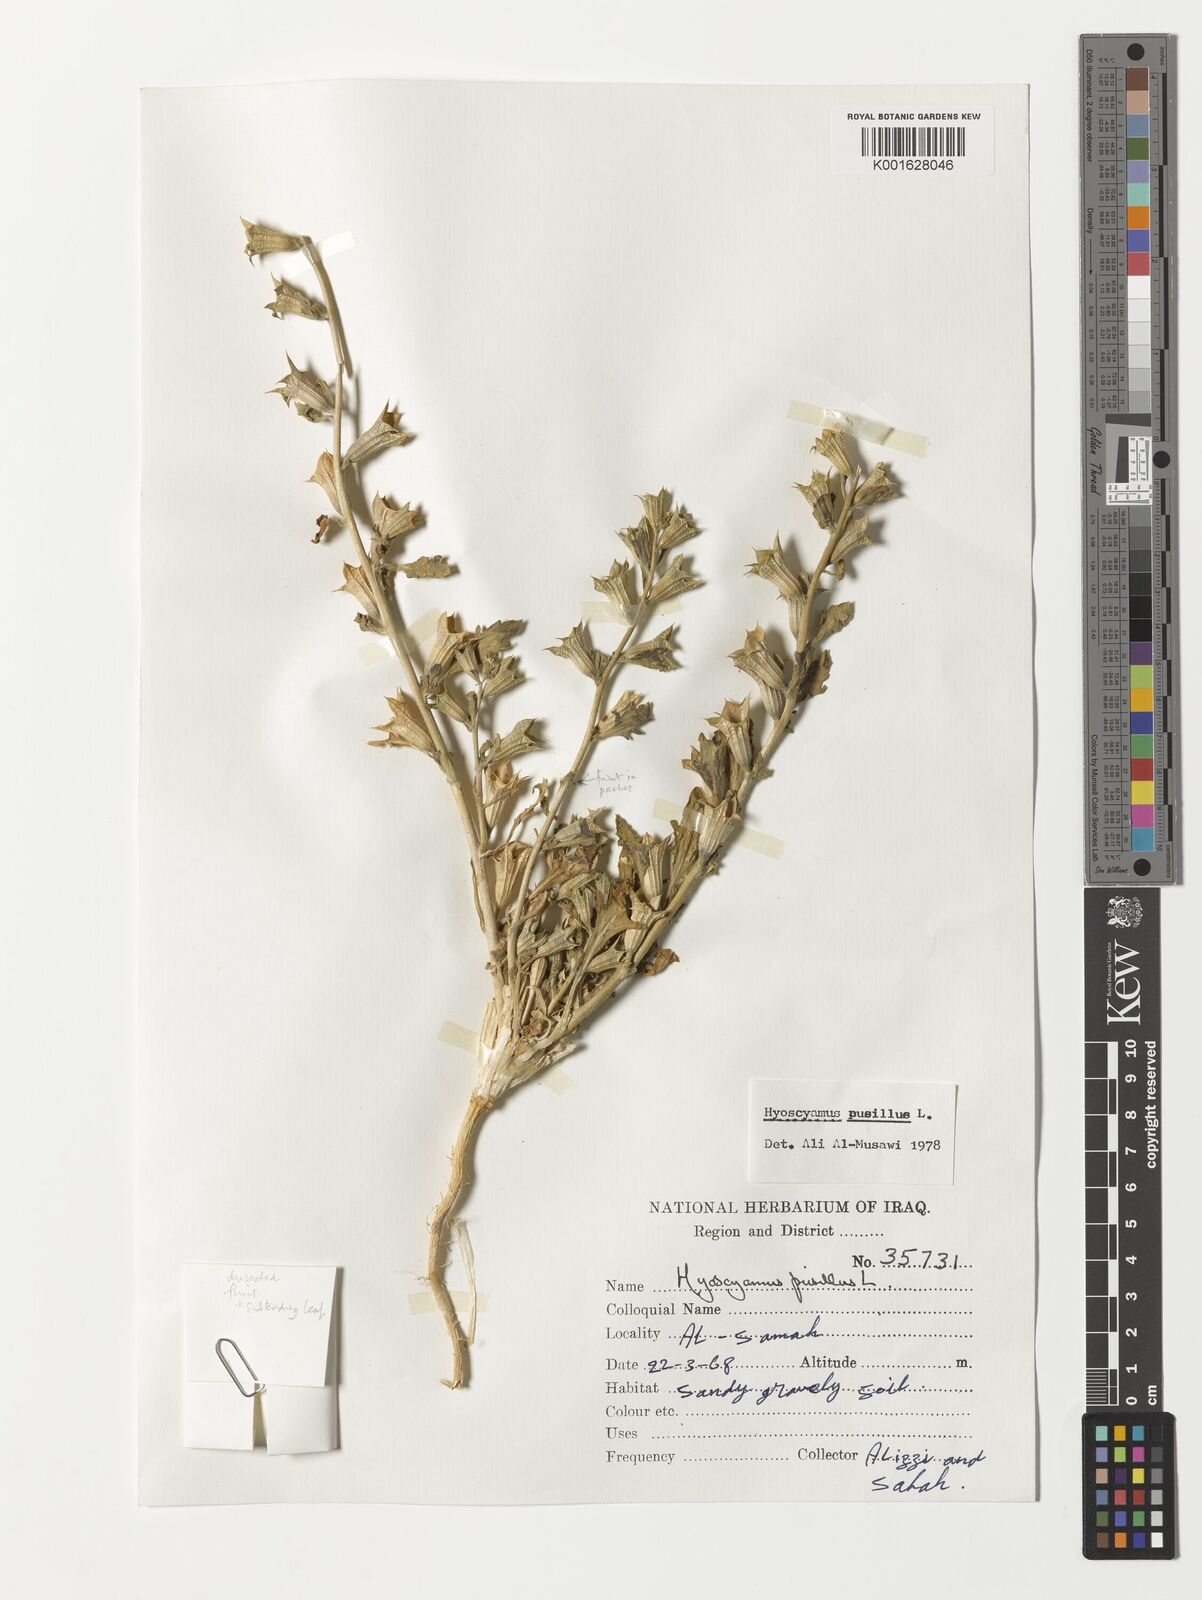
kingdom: Plantae
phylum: Tracheophyta
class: Magnoliopsida
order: Solanales
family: Solanaceae
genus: Hyoscyamus
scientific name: Hyoscyamus pusillus
